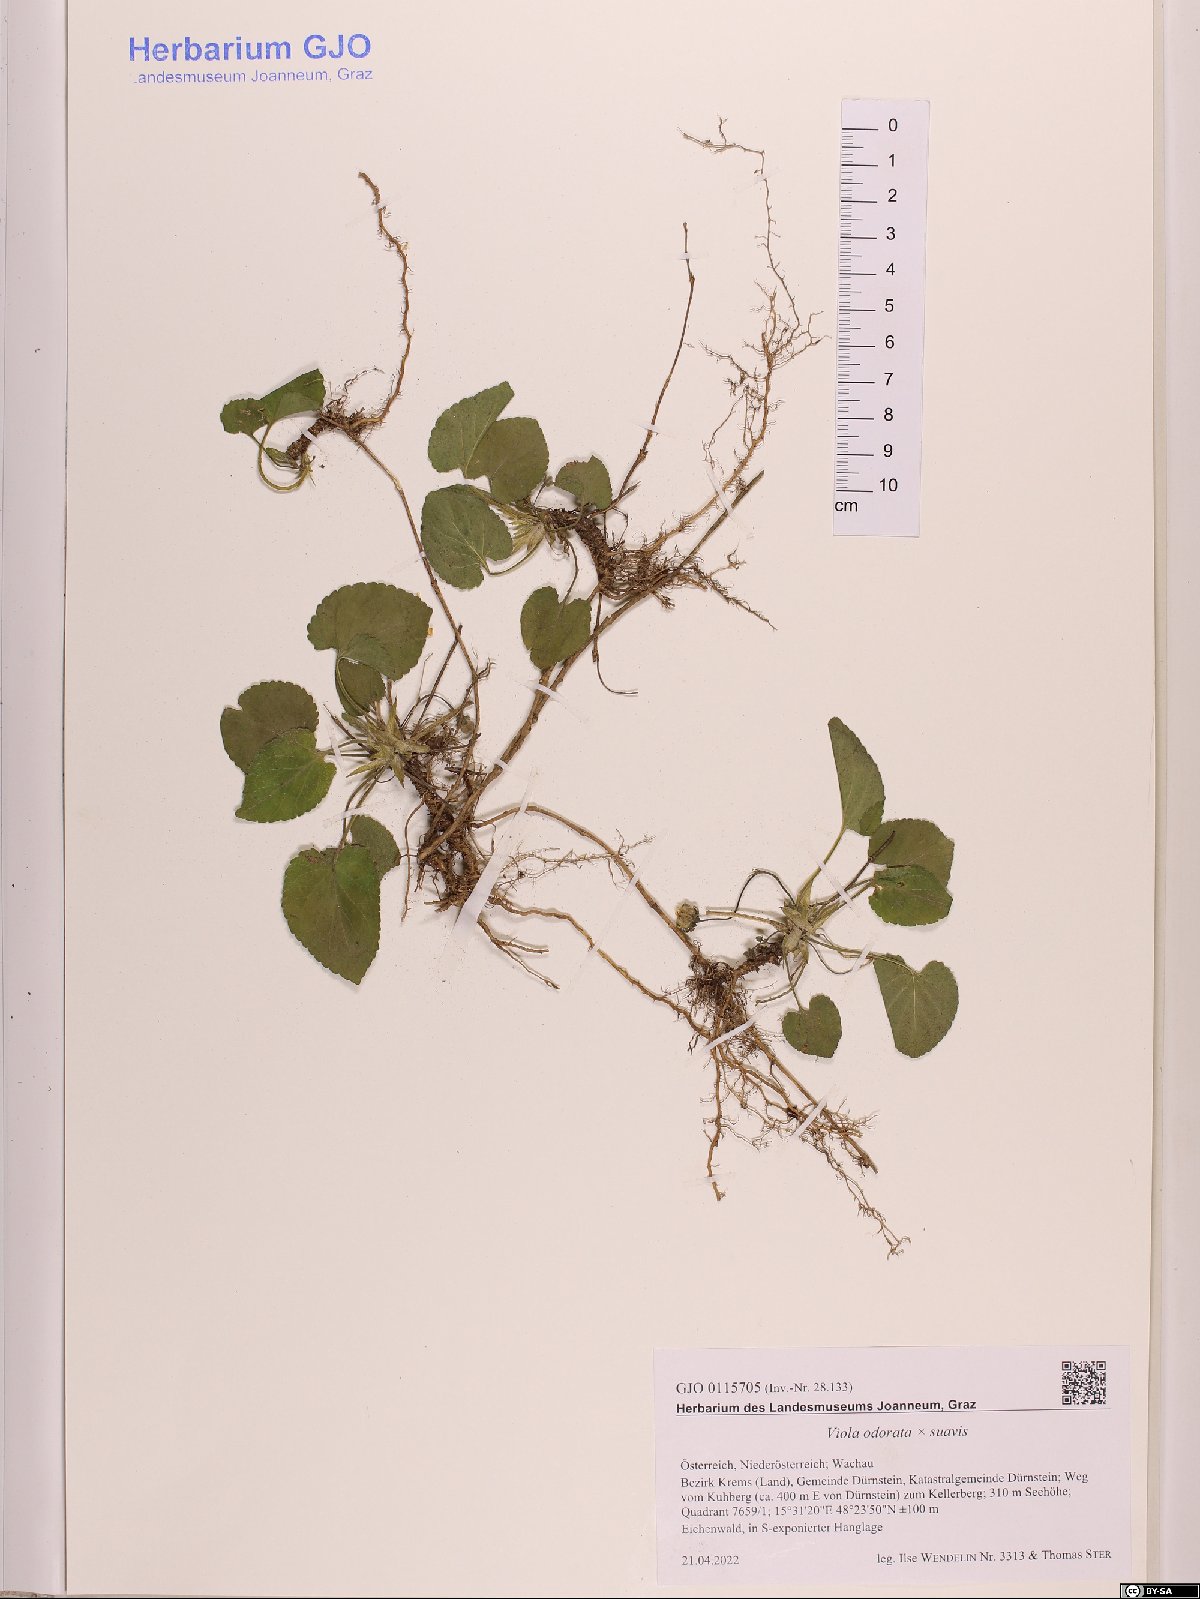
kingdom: Plantae
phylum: Tracheophyta
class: Magnoliopsida
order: Malpighiales
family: Violaceae
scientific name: Violaceae
